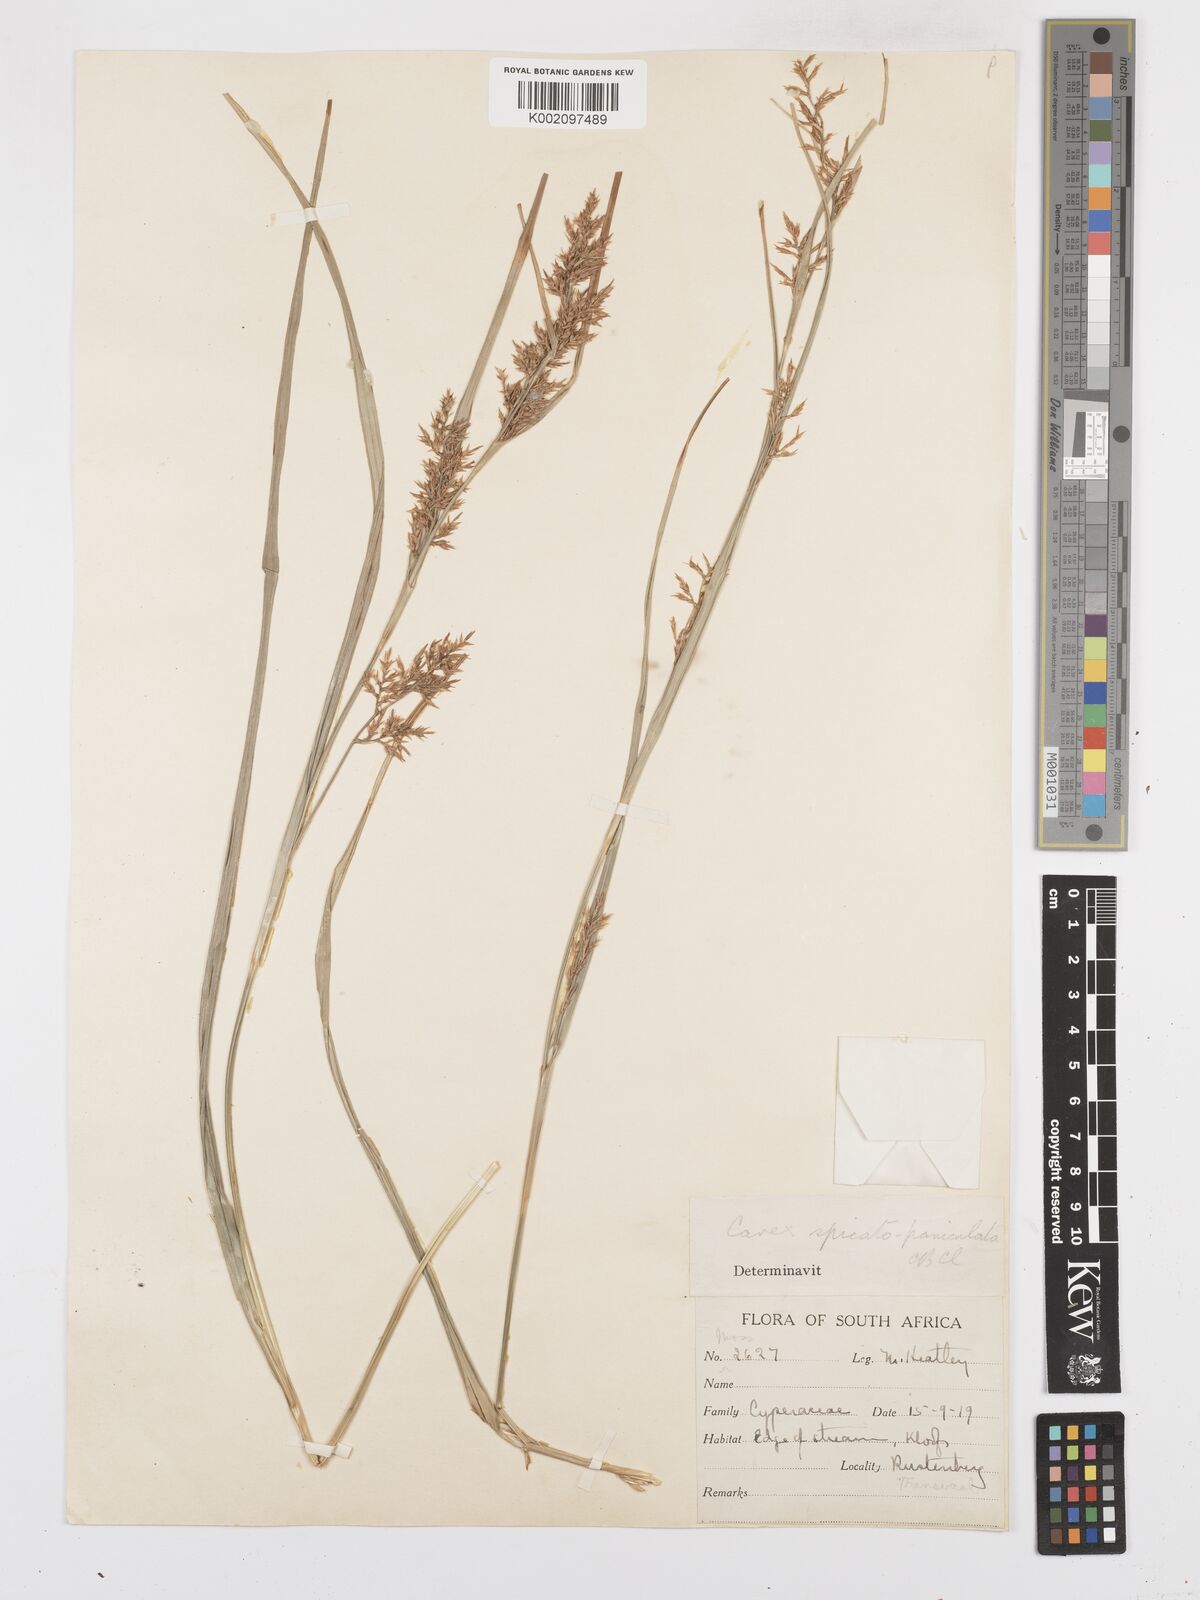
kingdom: Plantae
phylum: Tracheophyta
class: Liliopsida
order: Poales
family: Cyperaceae
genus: Carex
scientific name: Carex spicatopaniculata
